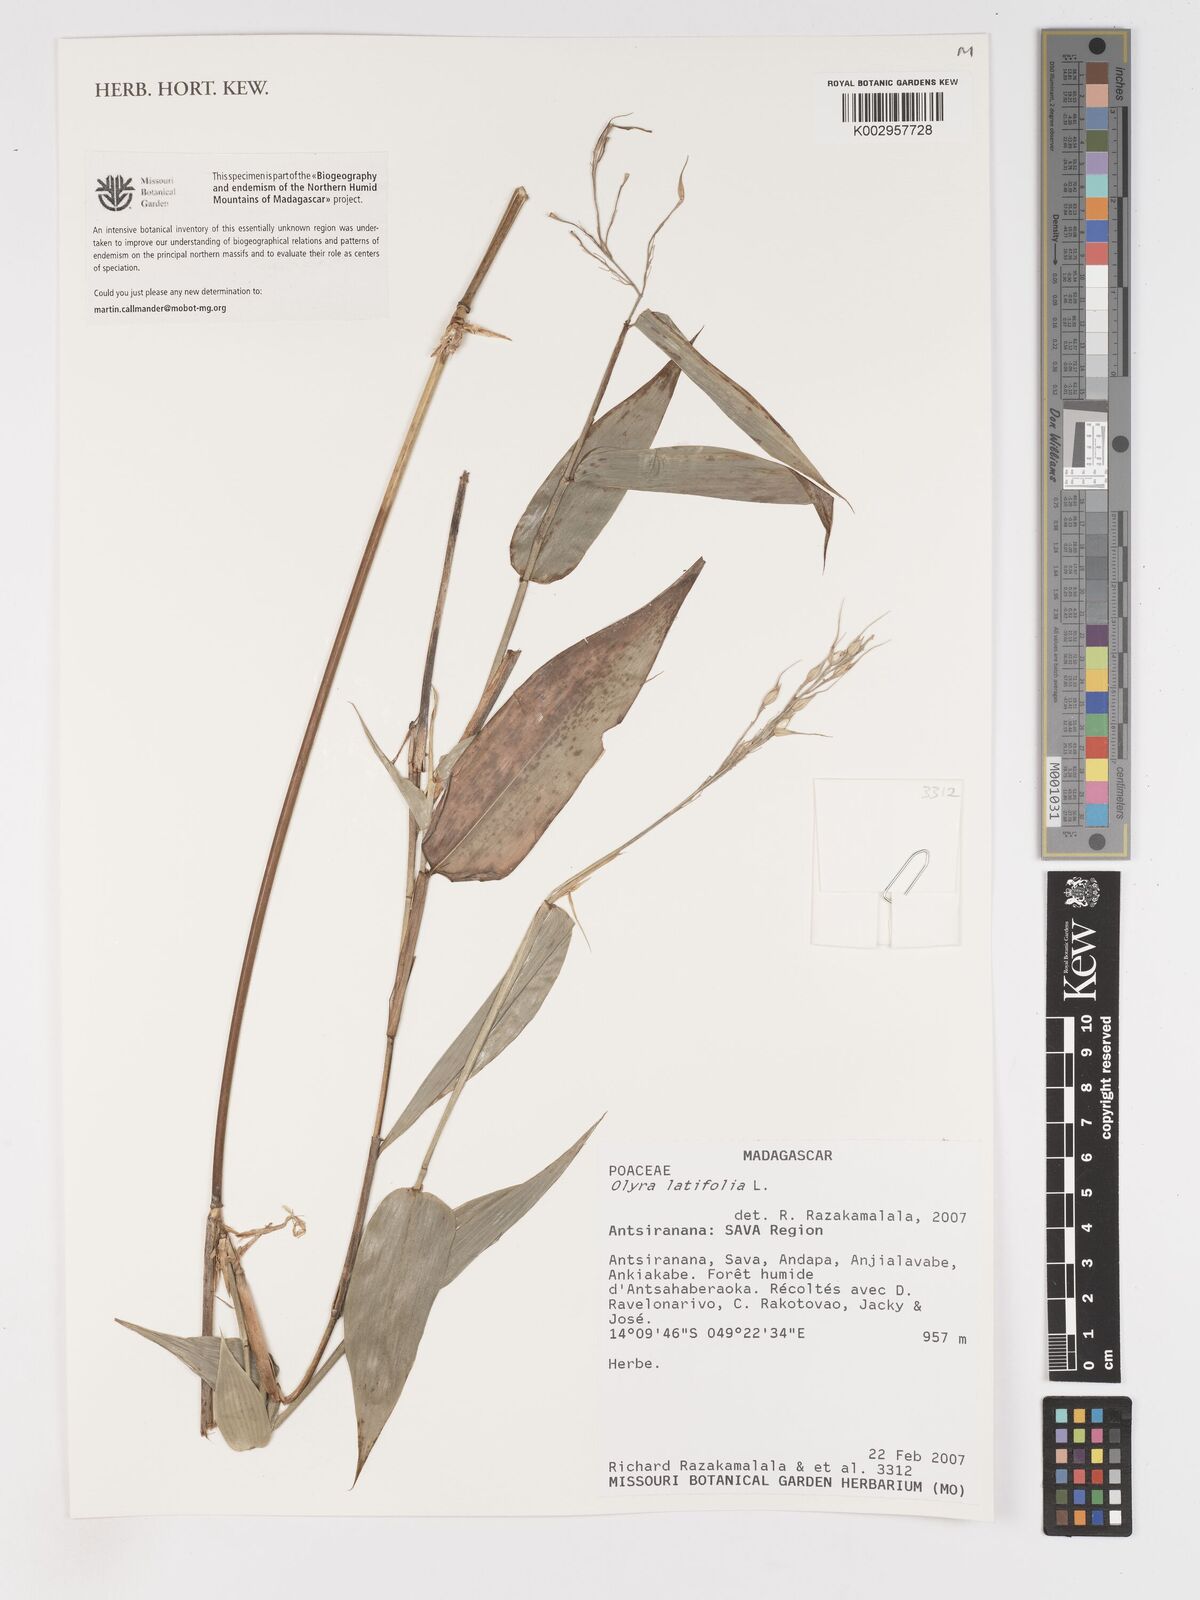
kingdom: Plantae
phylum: Tracheophyta
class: Liliopsida
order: Poales
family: Poaceae
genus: Olyra
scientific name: Olyra latifolia
